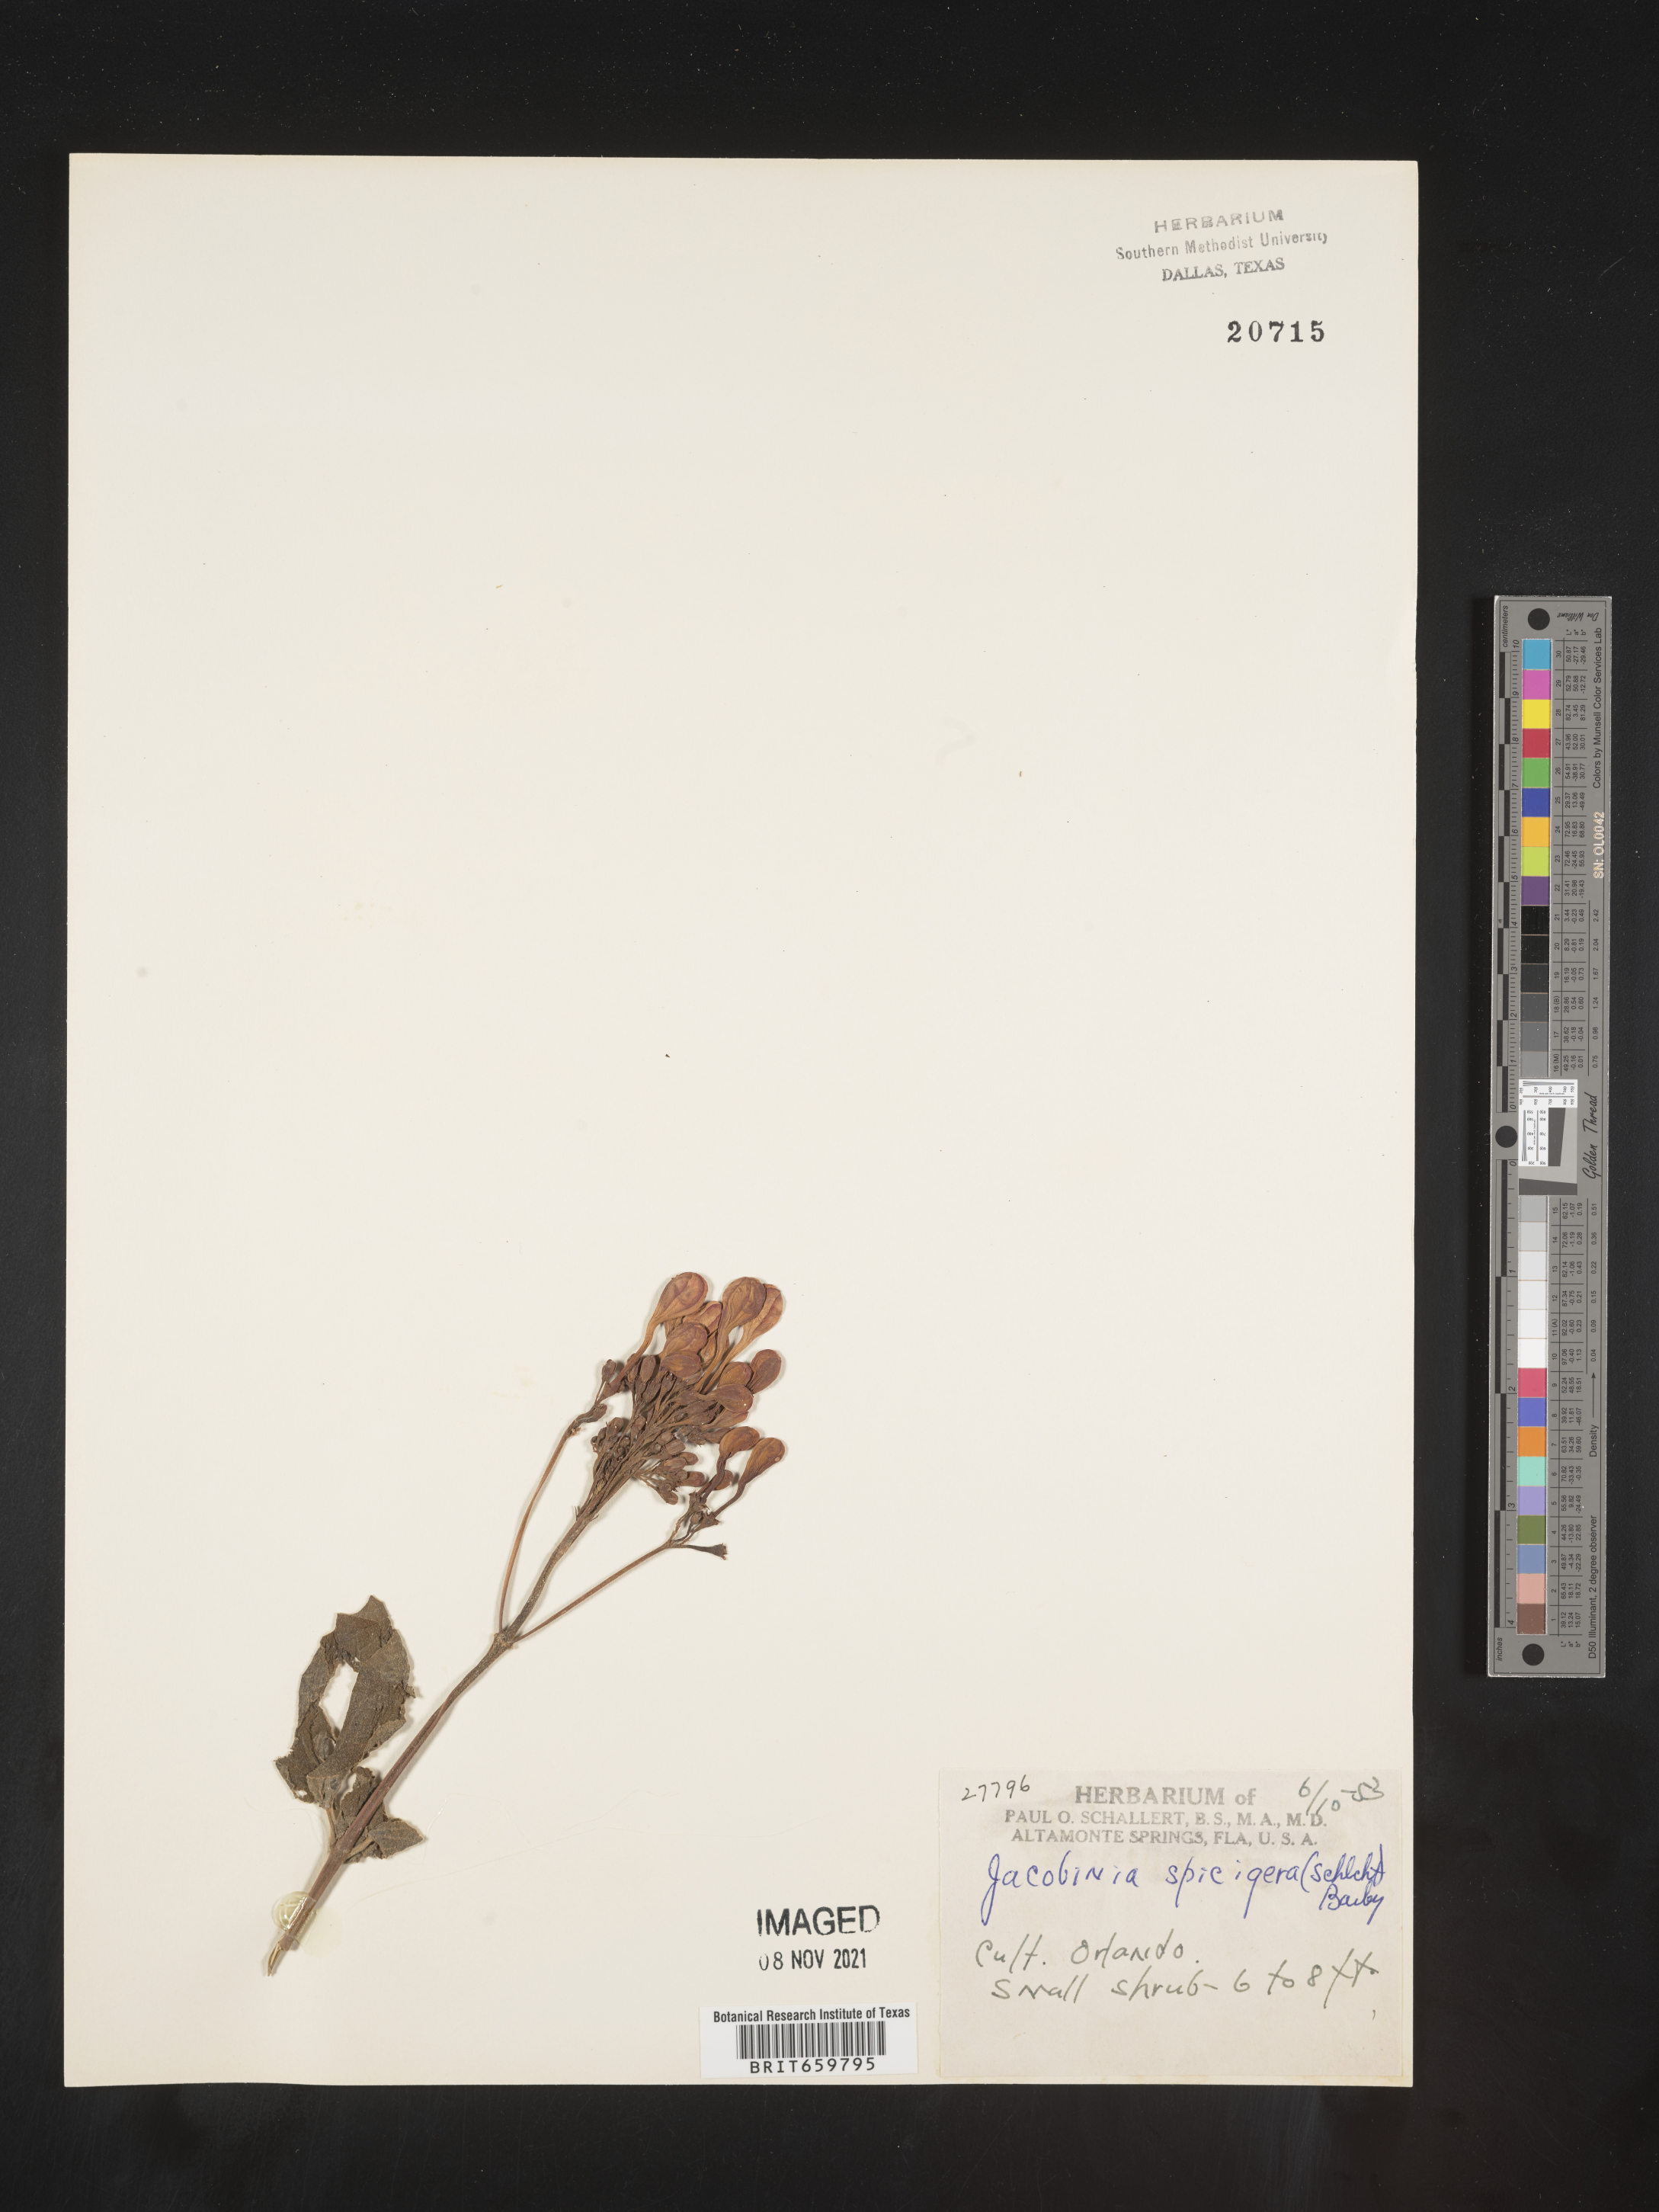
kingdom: Plantae
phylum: Tracheophyta
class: Magnoliopsida
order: Lamiales
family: Acanthaceae
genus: Justicia
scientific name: Justicia
